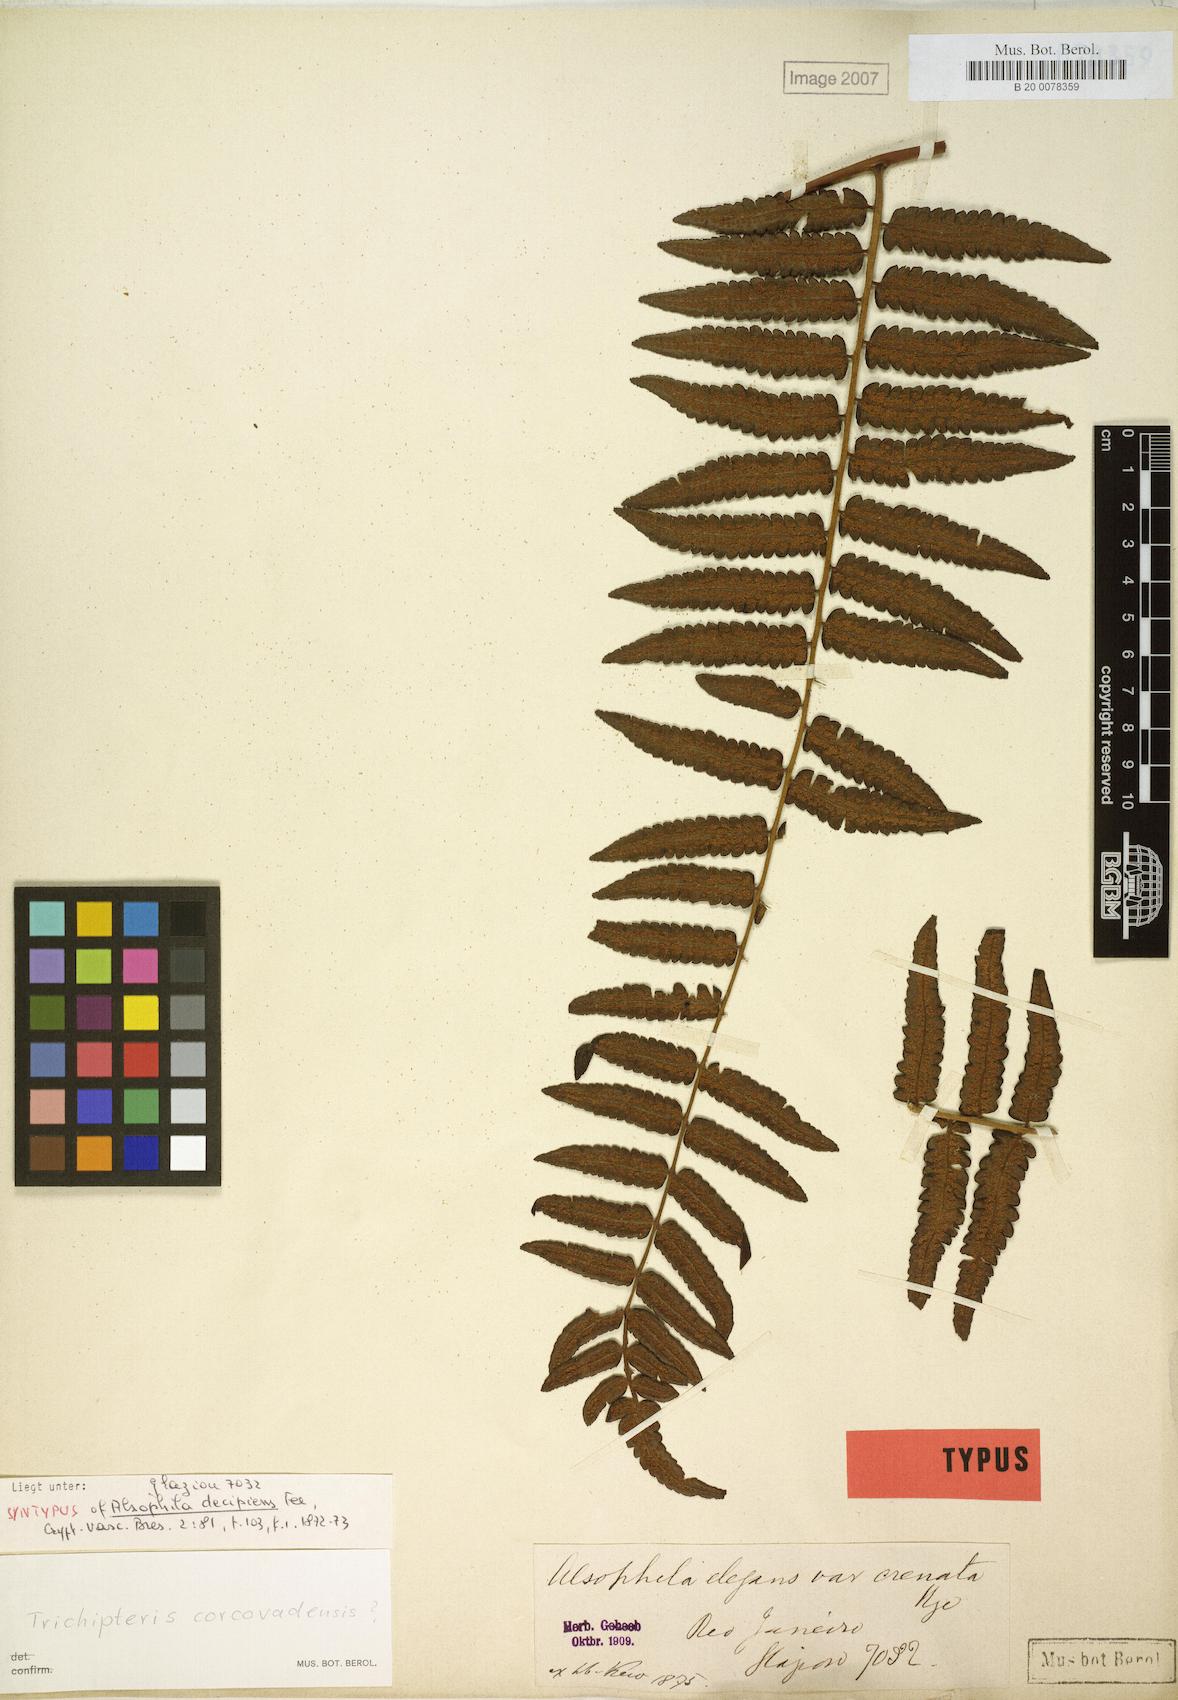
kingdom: Plantae
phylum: Tracheophyta
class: Polypodiopsida
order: Cyatheales
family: Cyatheaceae
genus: Cyathea
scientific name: Cyathea corcovadensis
